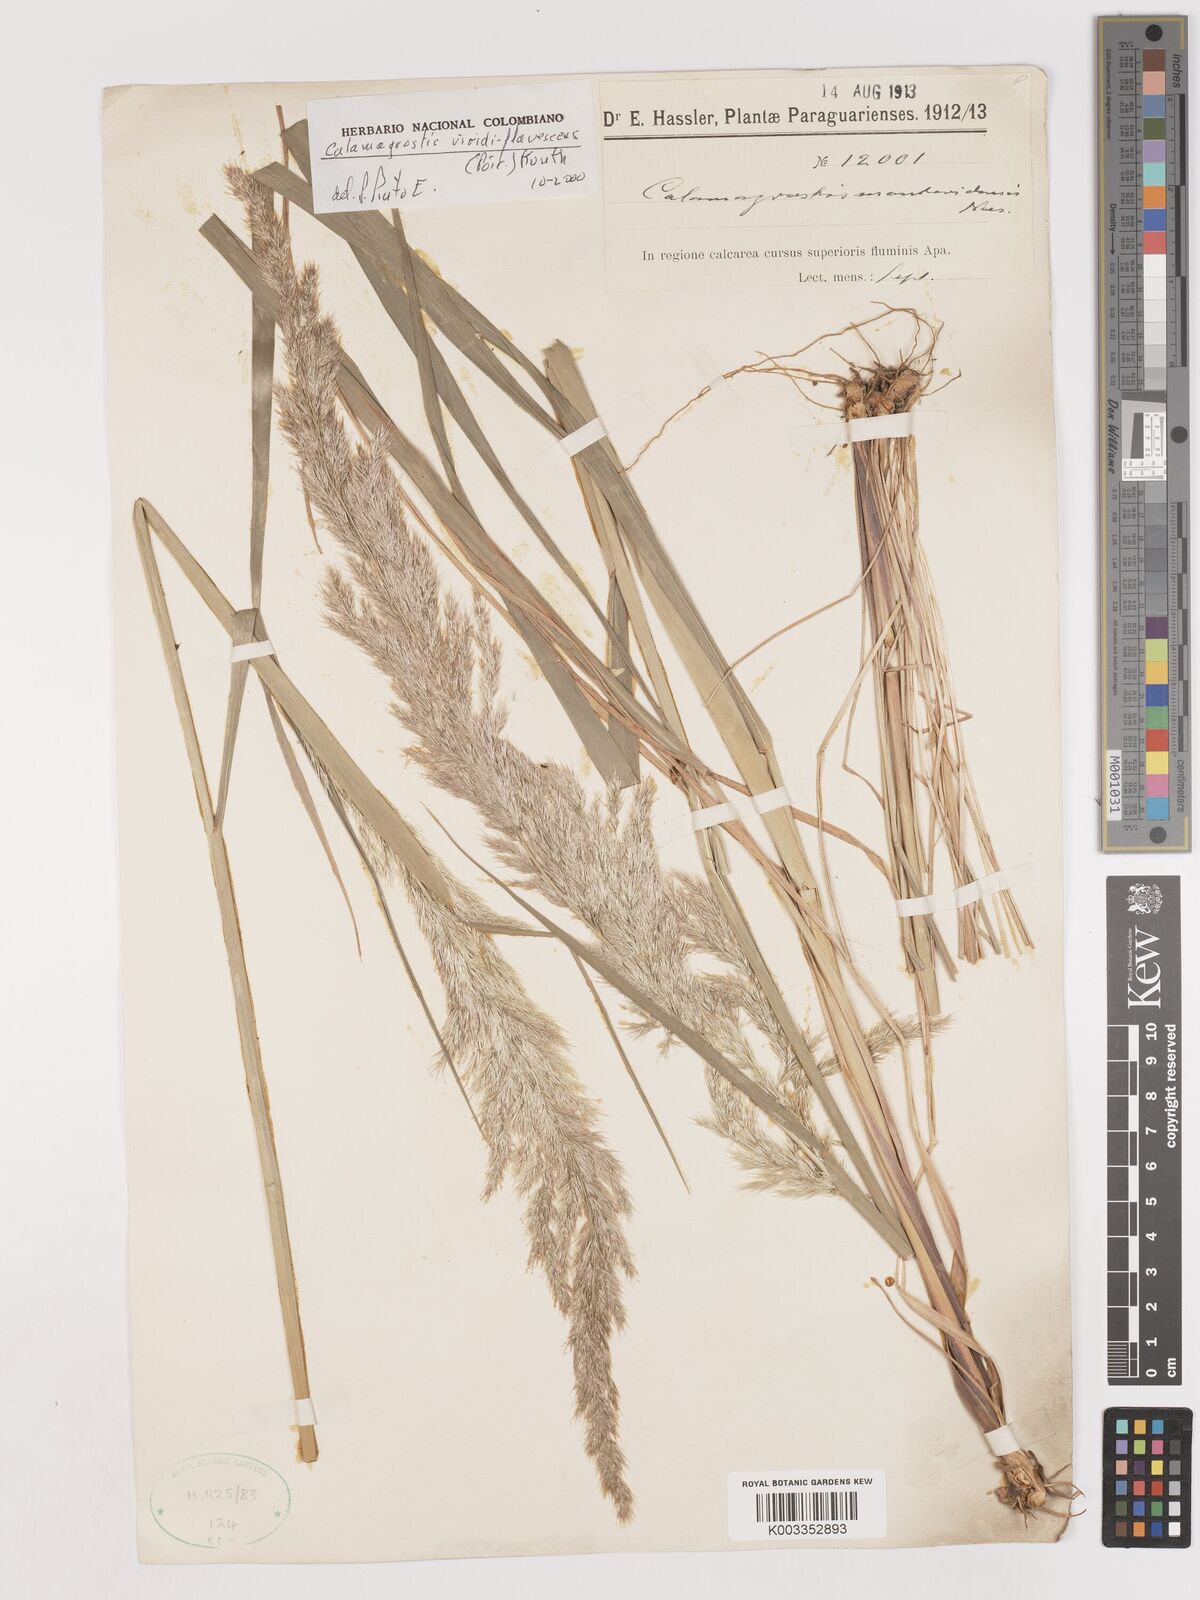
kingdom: Plantae
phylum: Tracheophyta
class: Liliopsida
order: Poales
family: Poaceae
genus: Cinnagrostis
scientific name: Cinnagrostis viridiflavescens
